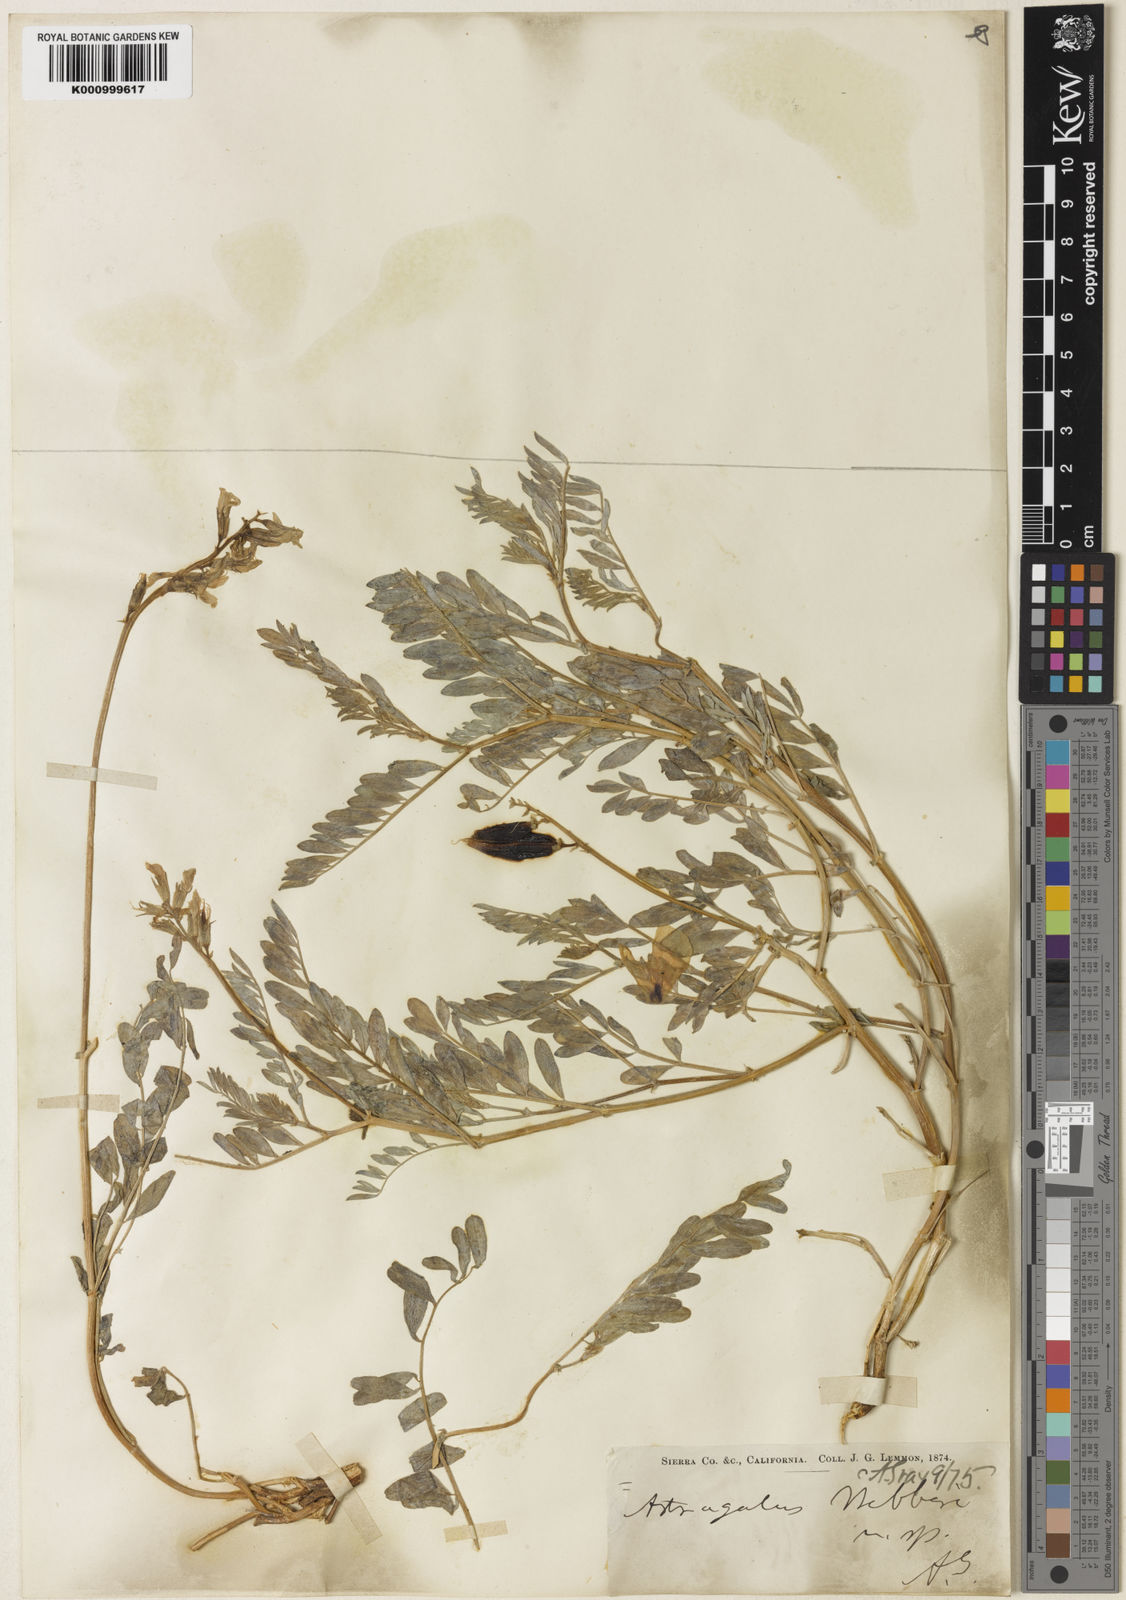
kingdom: Plantae
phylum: Tracheophyta
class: Magnoliopsida
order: Fabales
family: Fabaceae
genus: Astragalus
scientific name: Astragalus webberi
